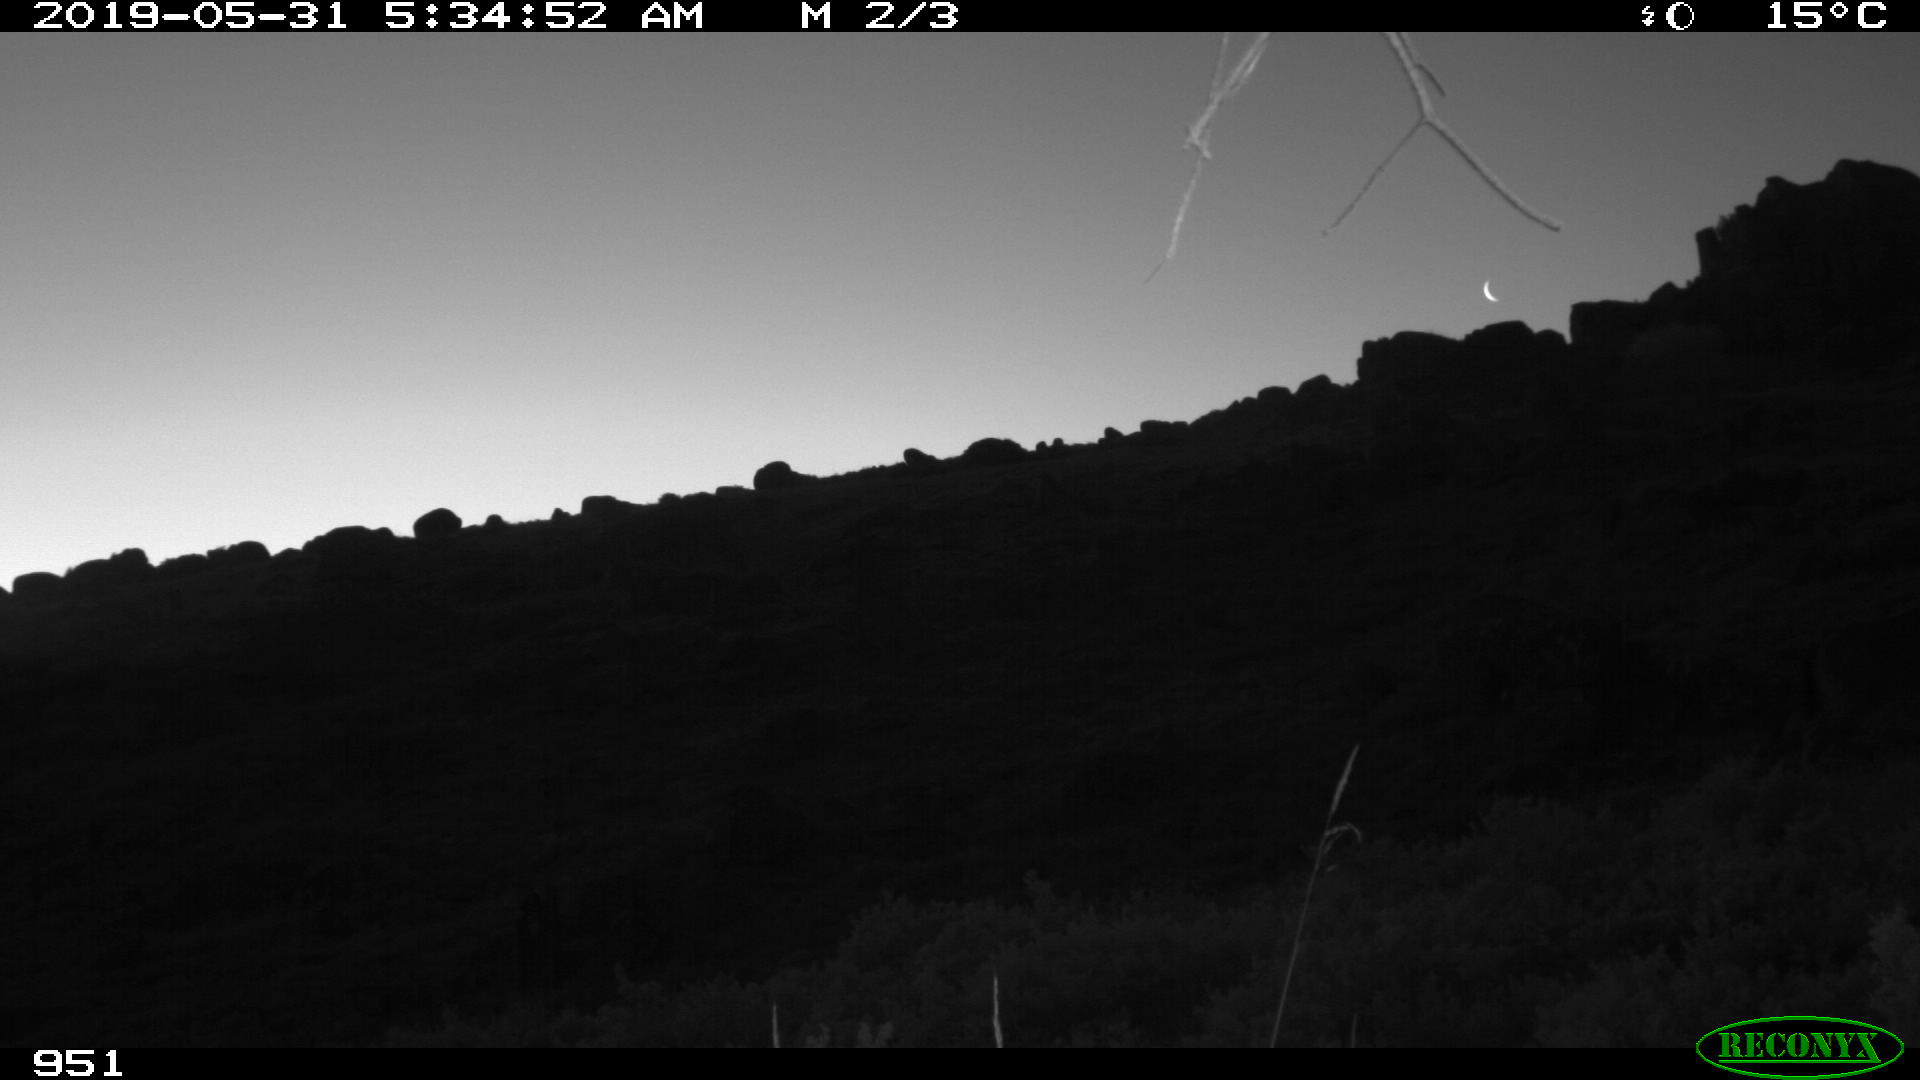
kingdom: Animalia
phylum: Chordata
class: Mammalia
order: Perissodactyla
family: Equidae
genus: Equus
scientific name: Equus caballus
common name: Horse
